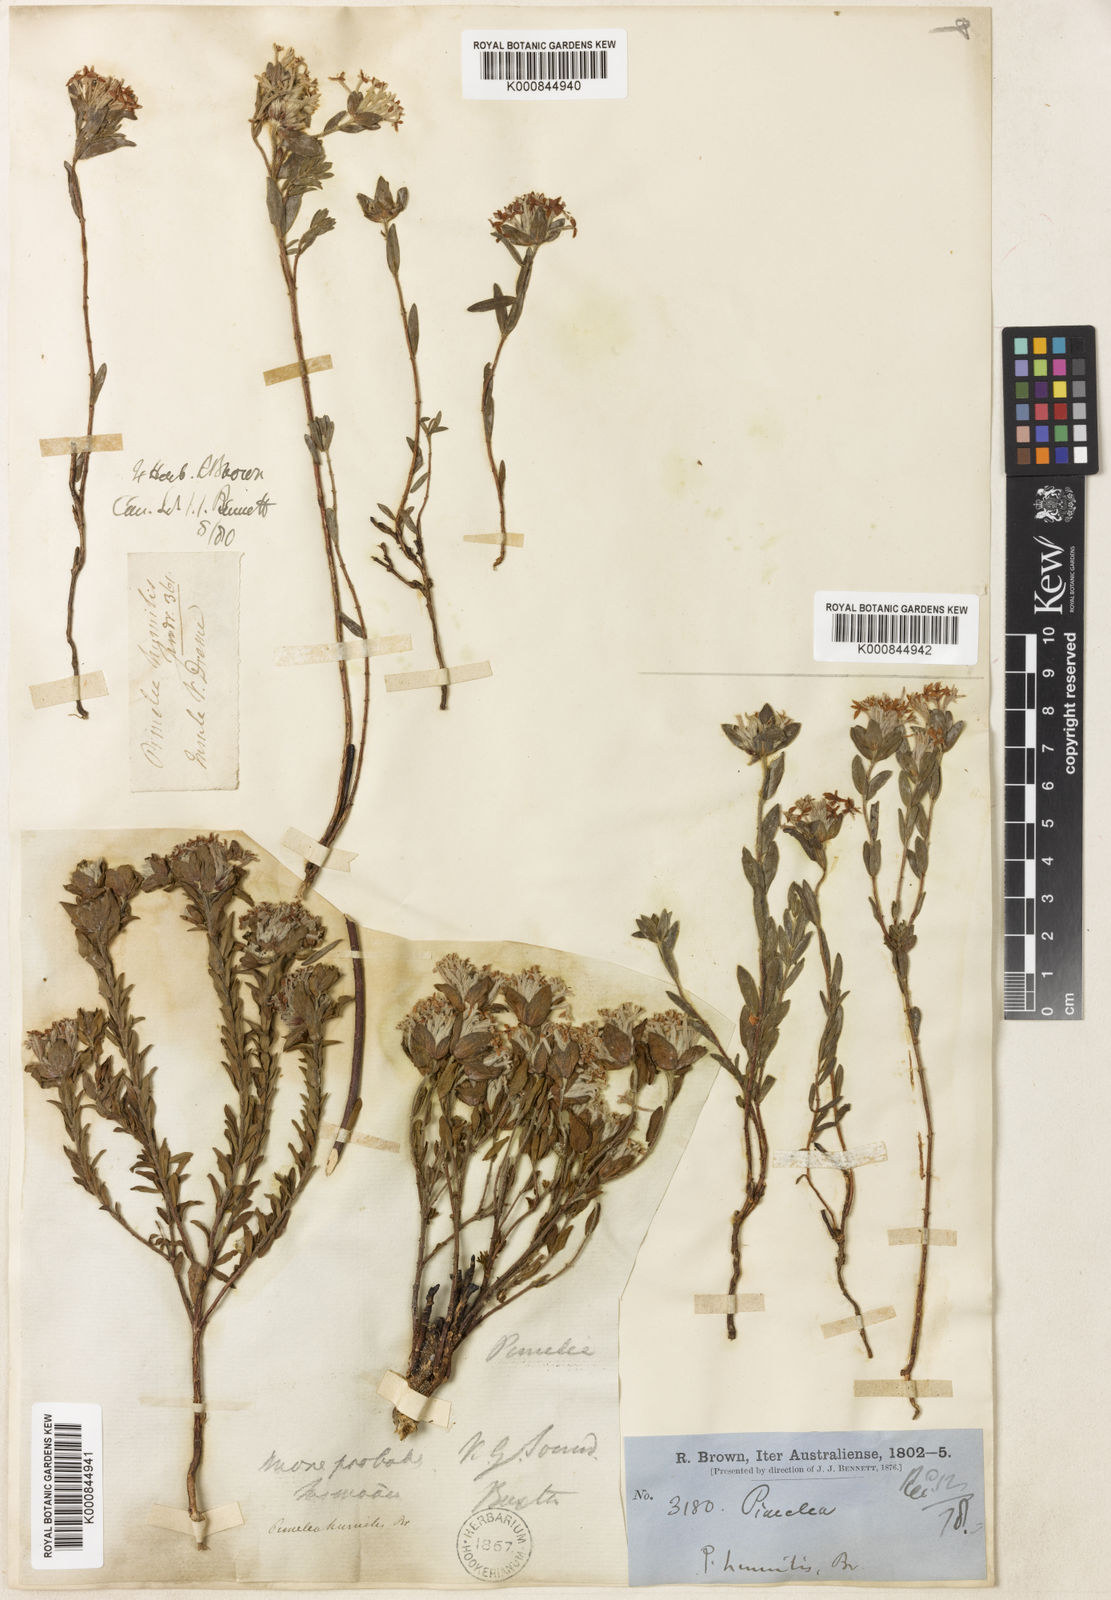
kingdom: Plantae
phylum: Tracheophyta
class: Magnoliopsida
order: Malvales
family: Thymelaeaceae
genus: Pimelea
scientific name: Pimelea humilis
